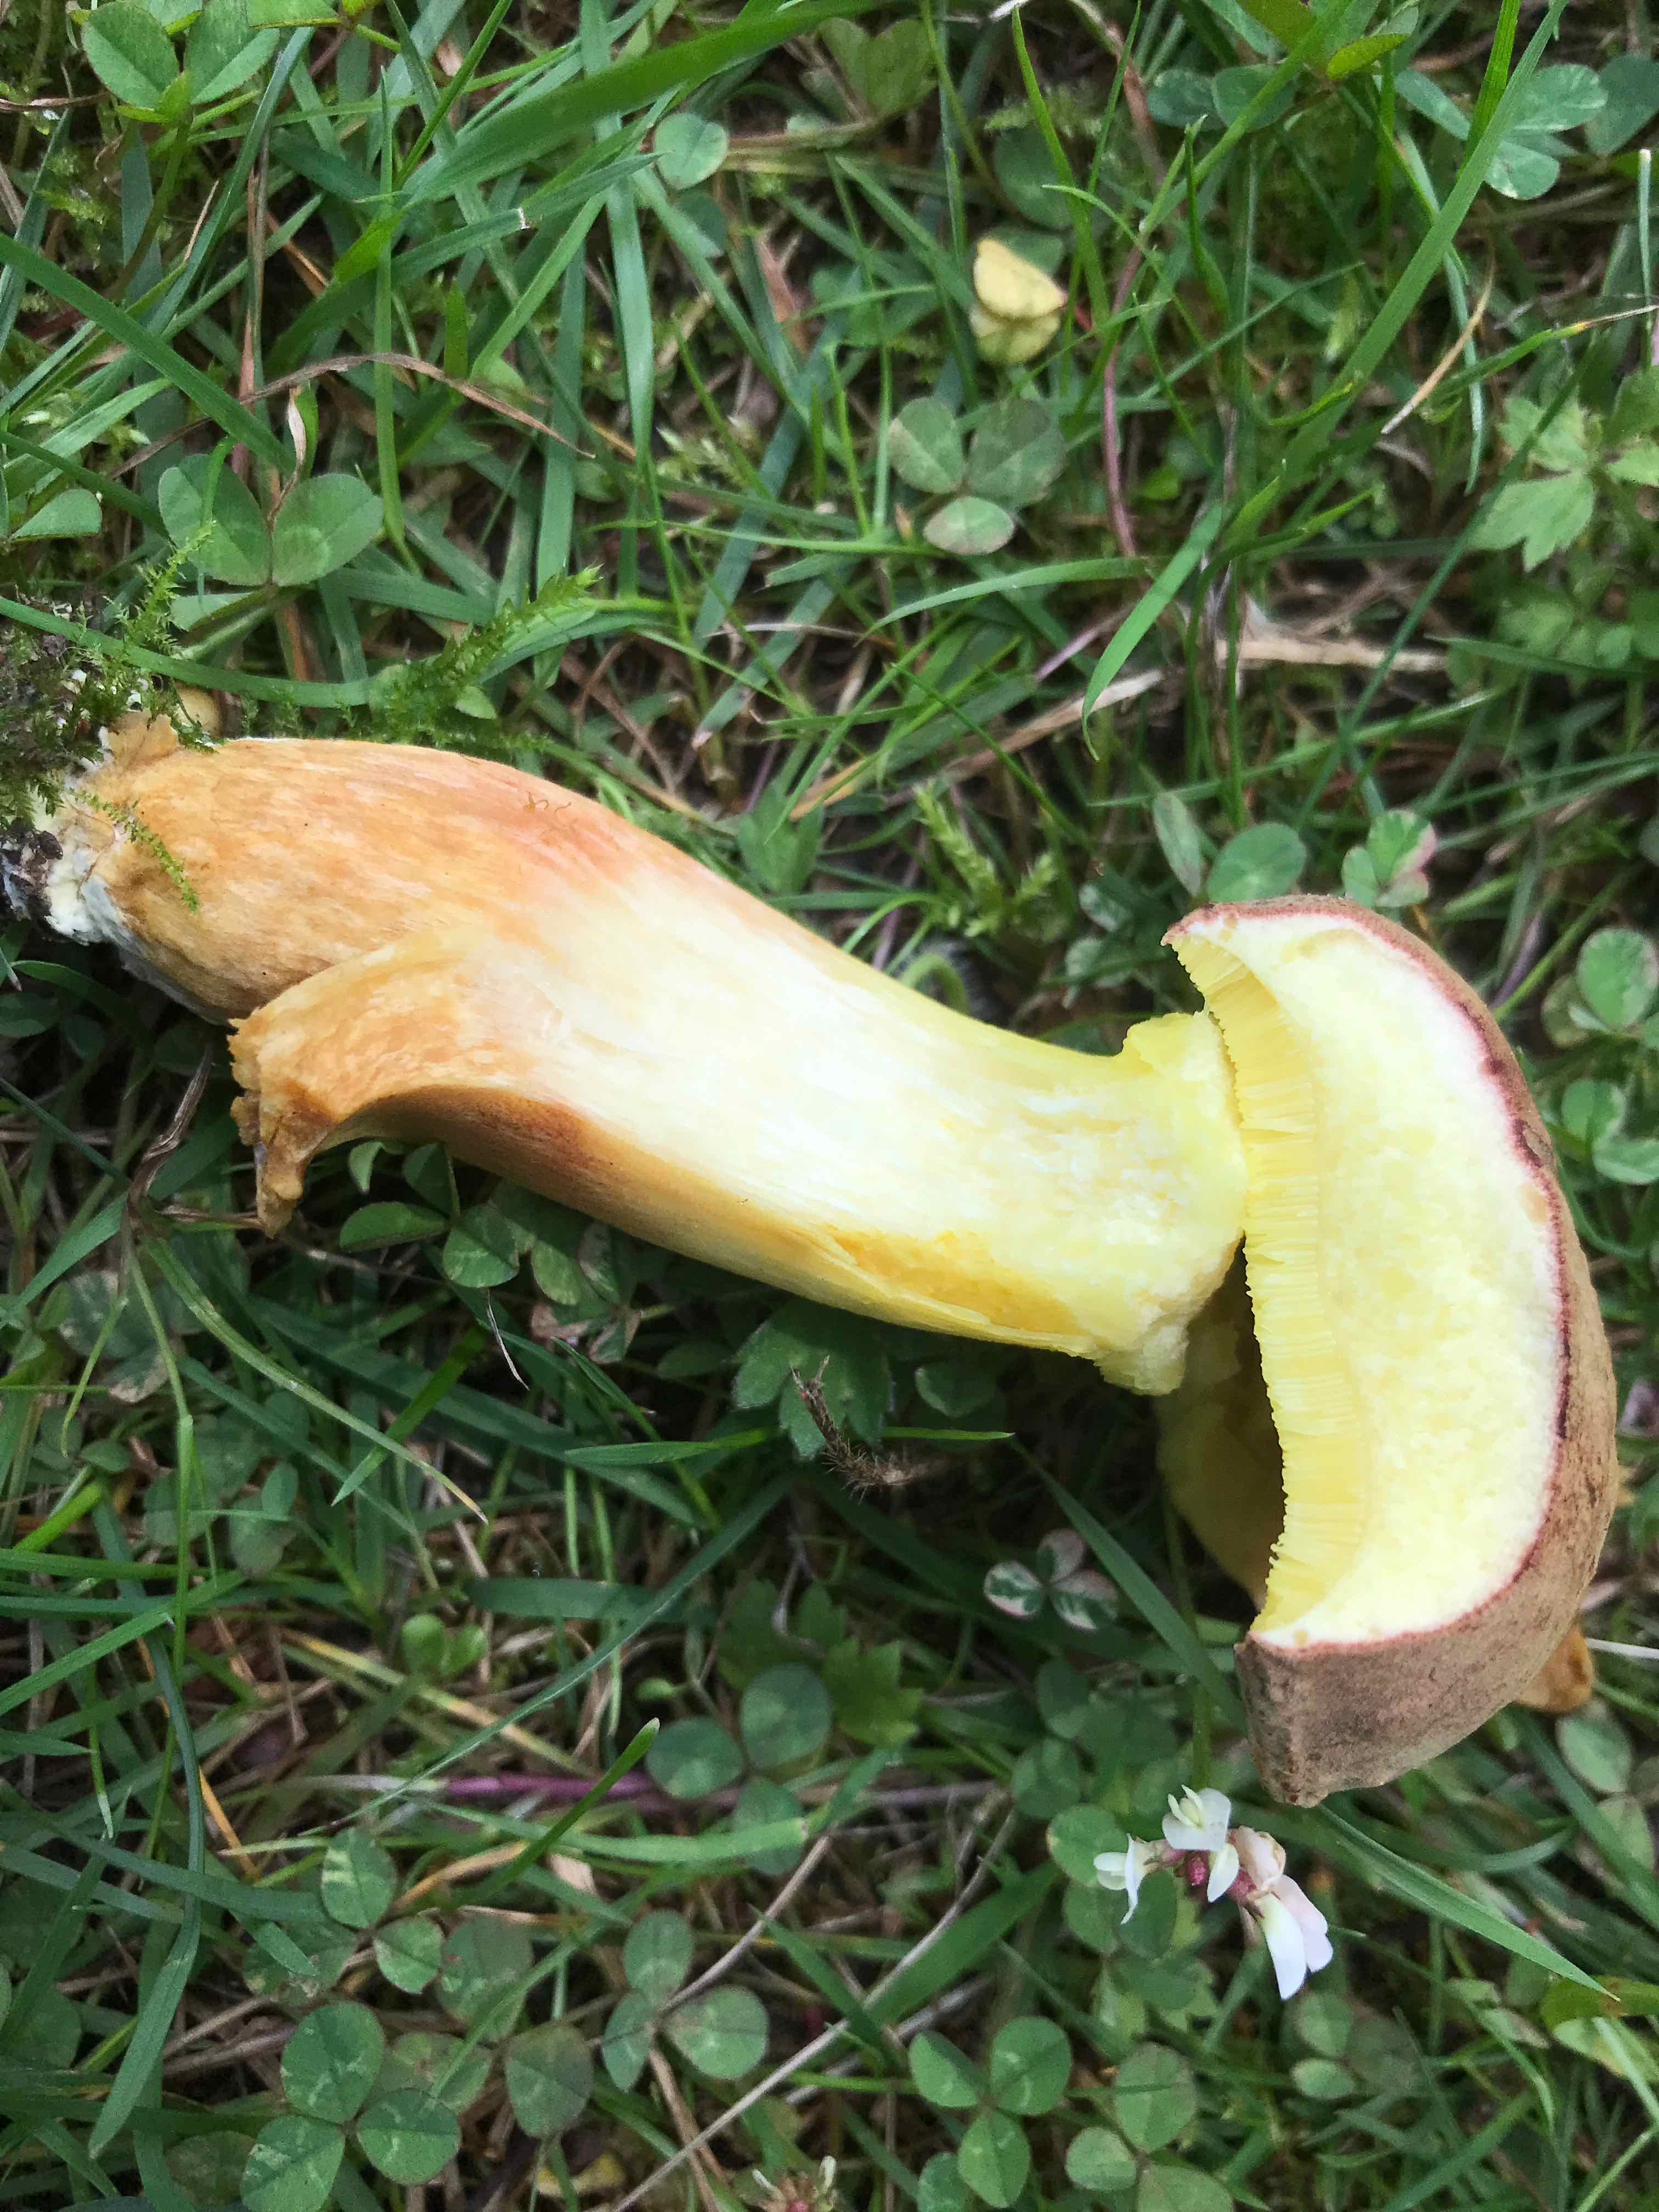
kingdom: Fungi
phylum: Basidiomycota
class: Agaricomycetes
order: Boletales
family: Boletaceae
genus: Xerocomus
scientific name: Xerocomus subtomentosus
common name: filtet rørhat
